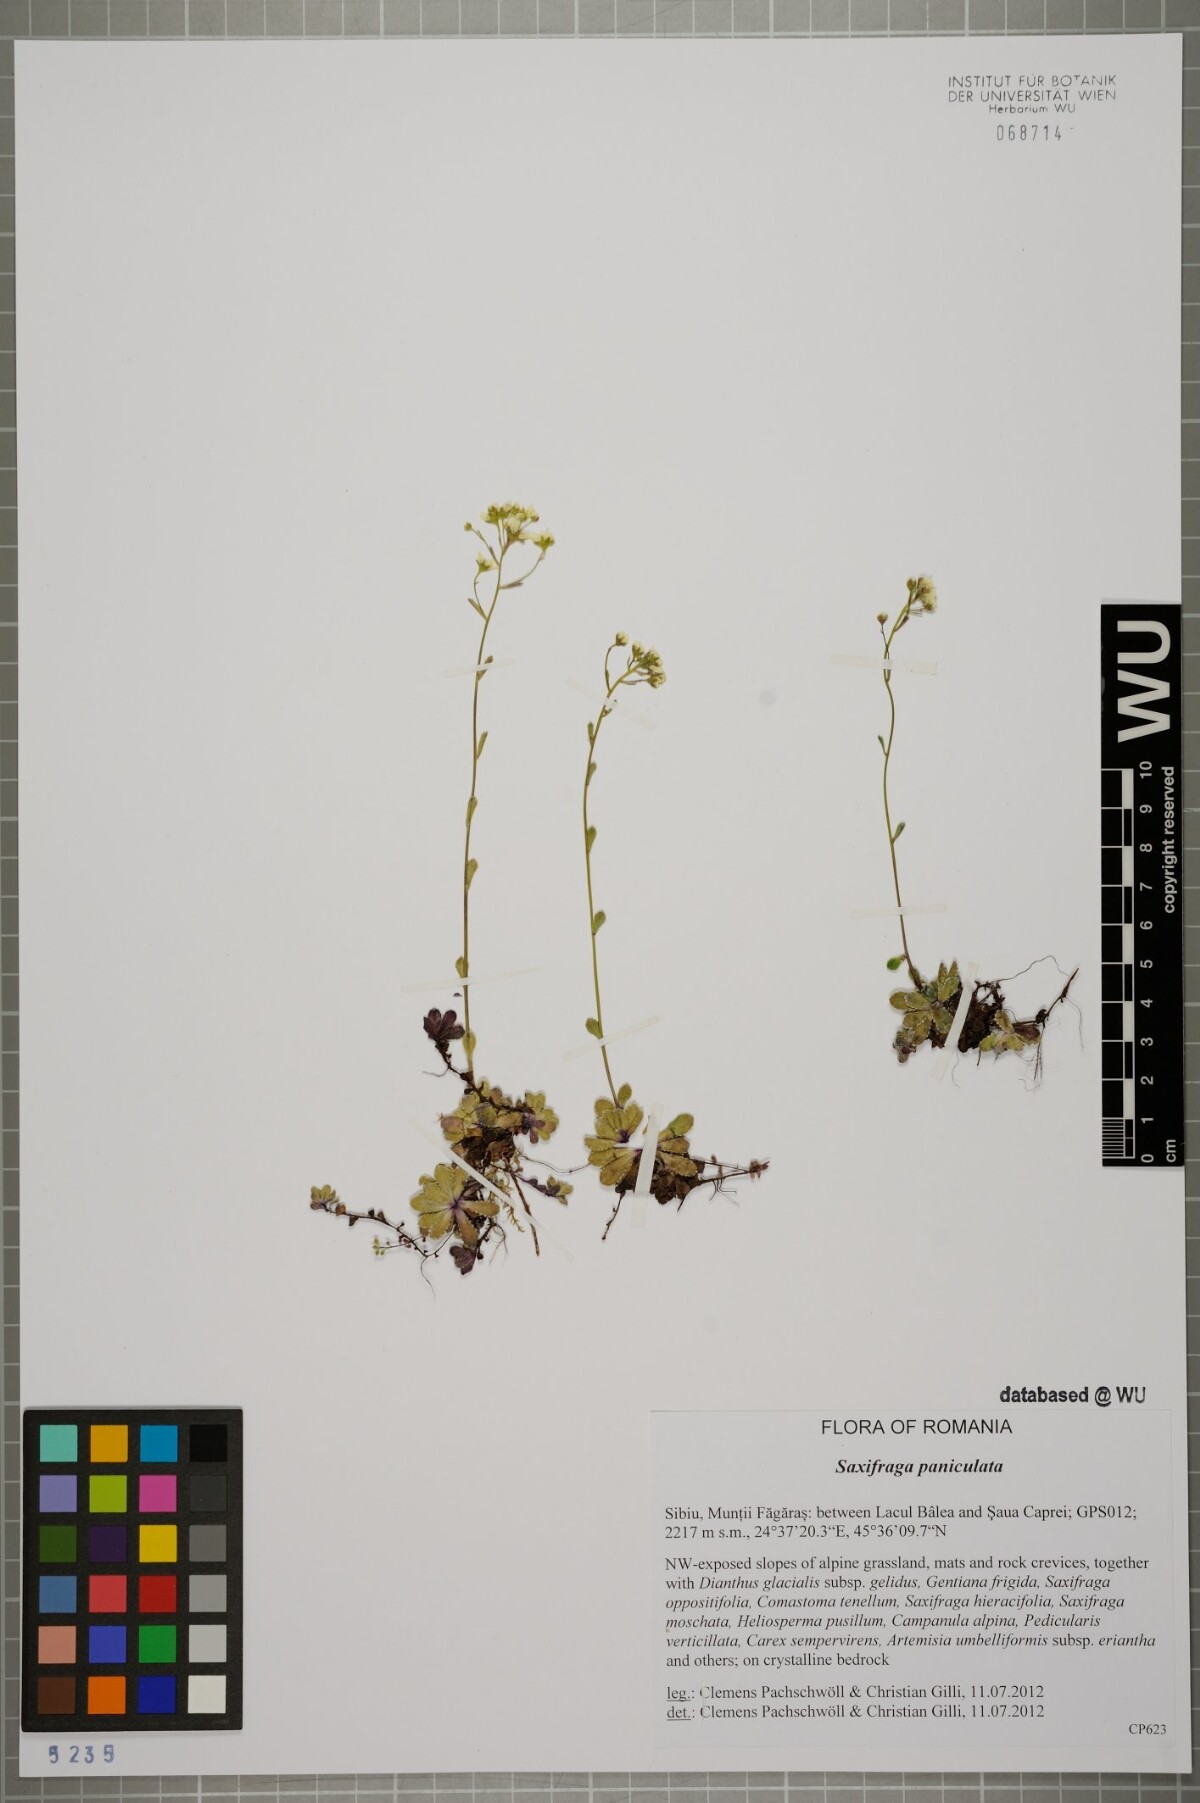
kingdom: Plantae
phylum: Tracheophyta
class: Magnoliopsida
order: Saxifragales
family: Saxifragaceae
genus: Saxifraga
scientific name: Saxifraga paniculata
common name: Livelong saxifrage
